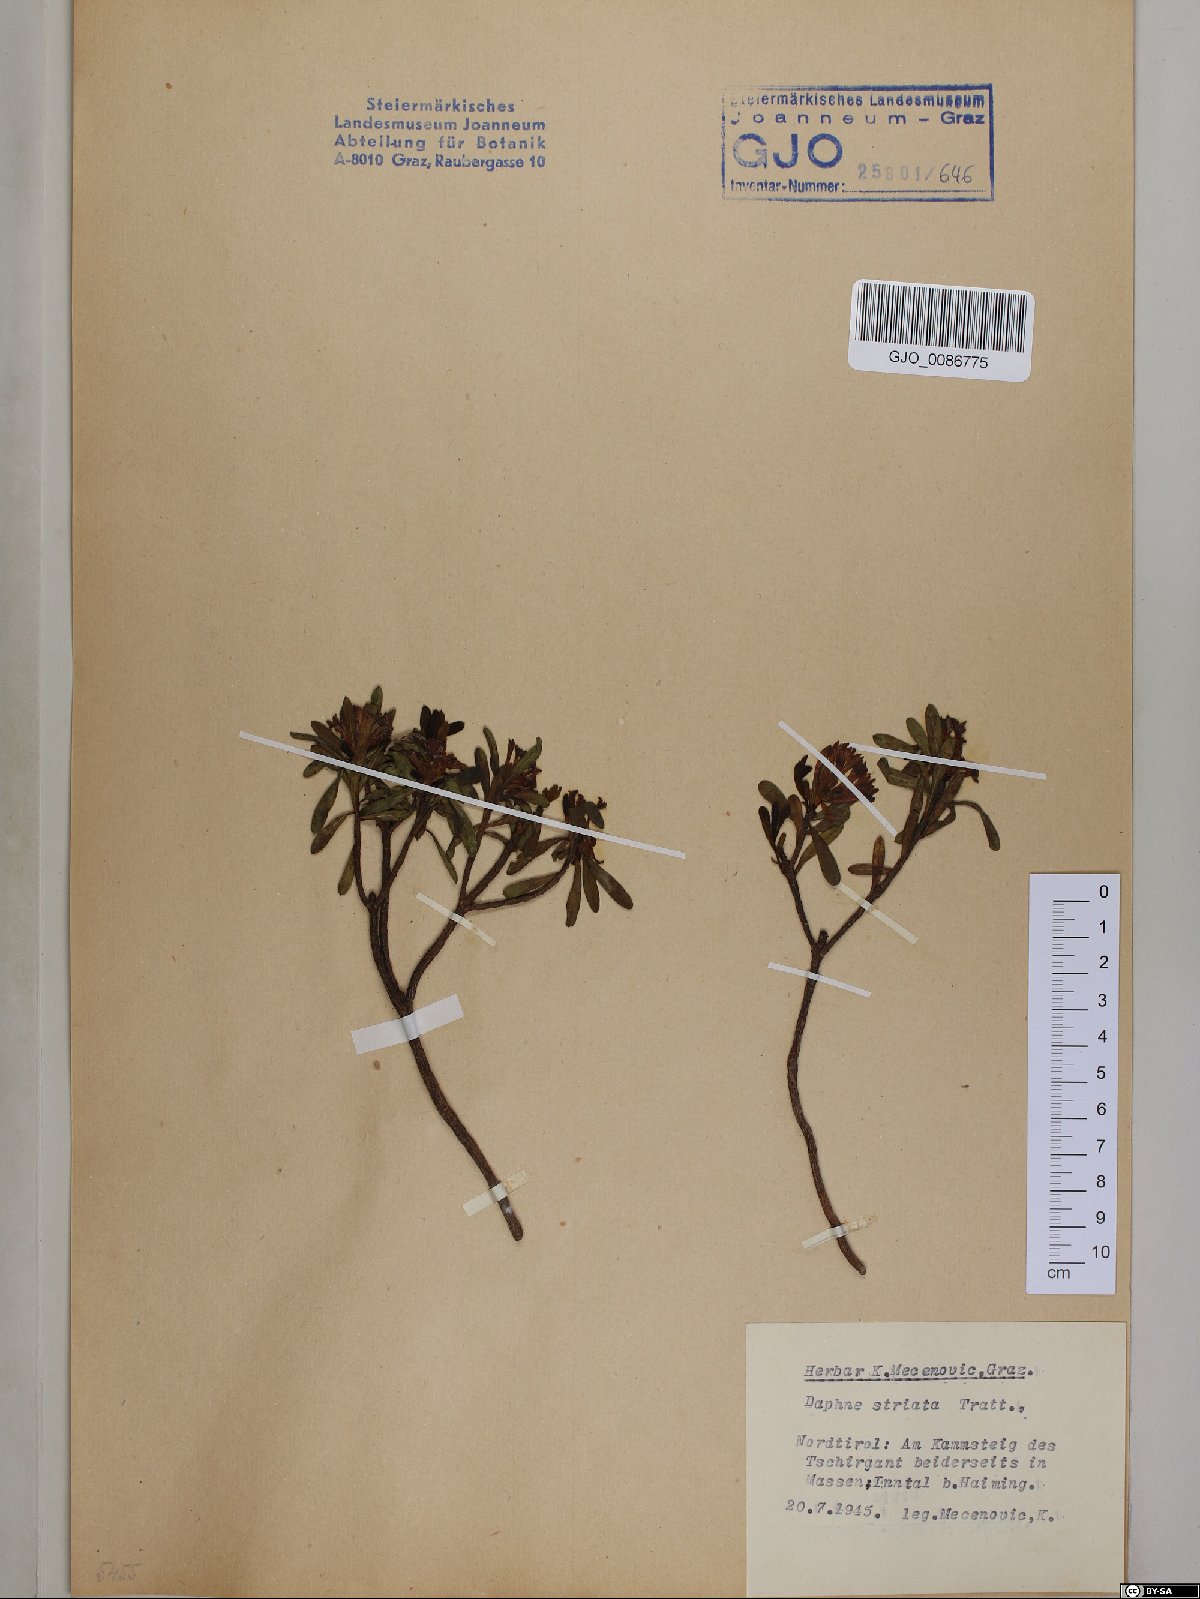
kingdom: Plantae
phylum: Tracheophyta
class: Magnoliopsida
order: Malvales
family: Thymelaeaceae
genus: Daphne
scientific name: Daphne striata
